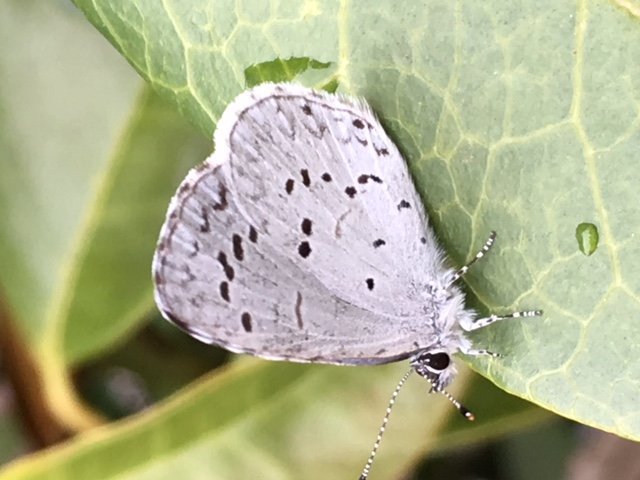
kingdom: Animalia
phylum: Arthropoda
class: Insecta
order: Lepidoptera
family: Lycaenidae
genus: Celastrina
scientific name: Celastrina
